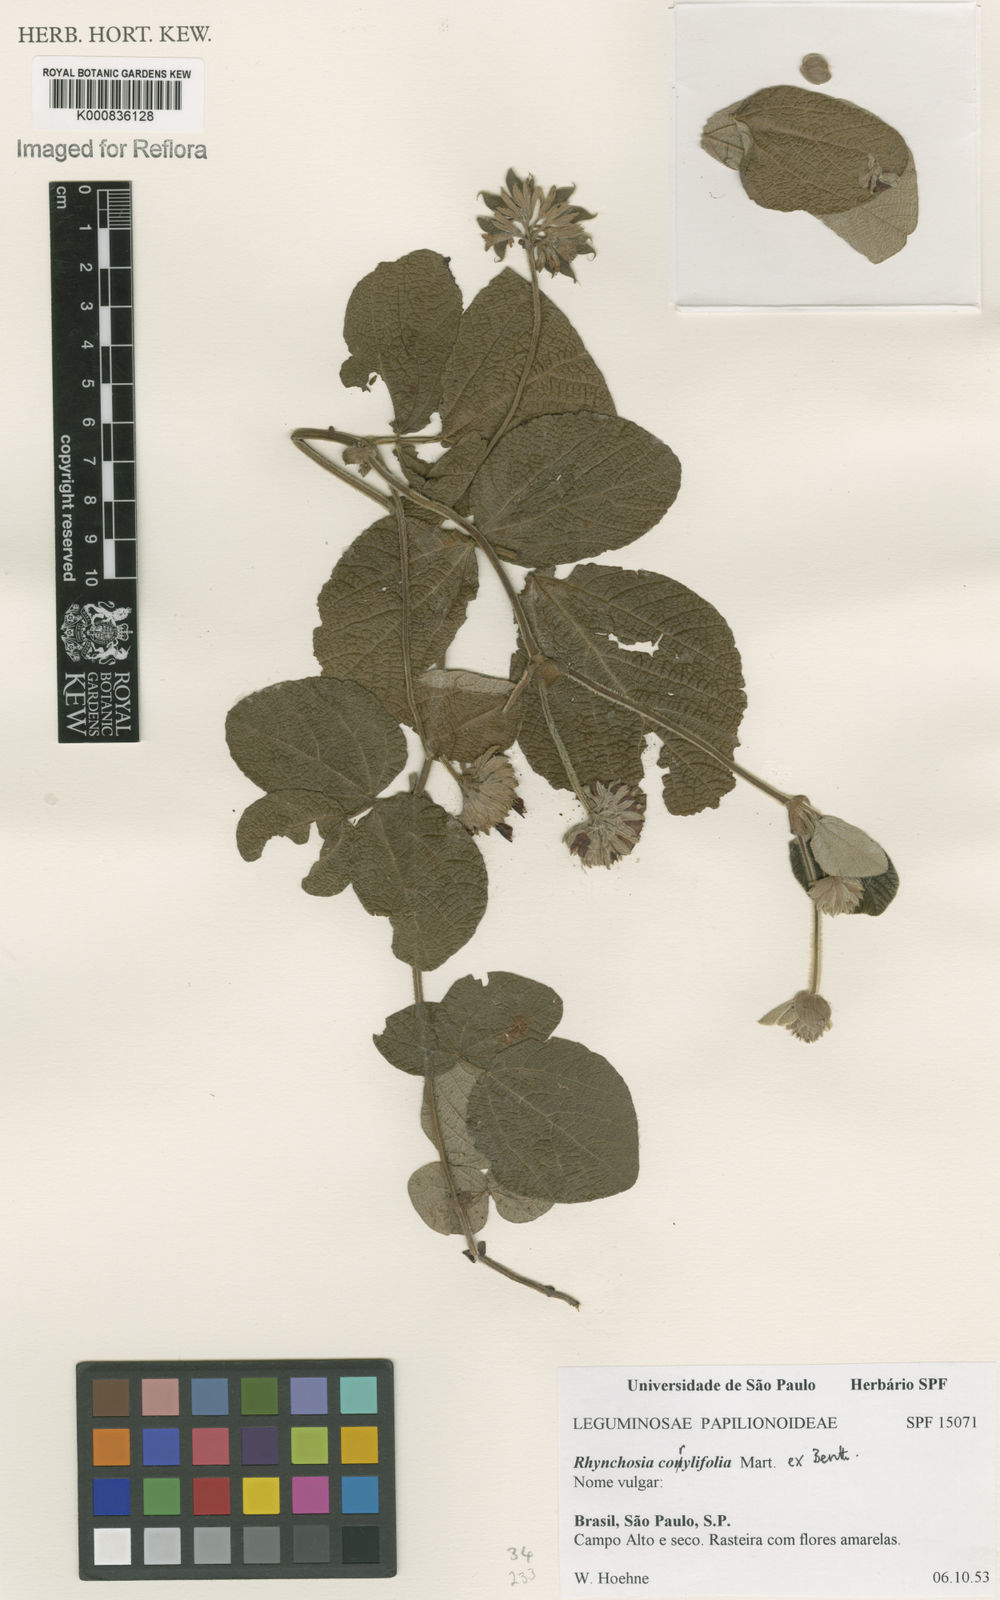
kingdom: Plantae
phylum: Tracheophyta
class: Magnoliopsida
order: Fabales
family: Fabaceae
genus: Rhynchosia
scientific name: Rhynchosia corylifolia
